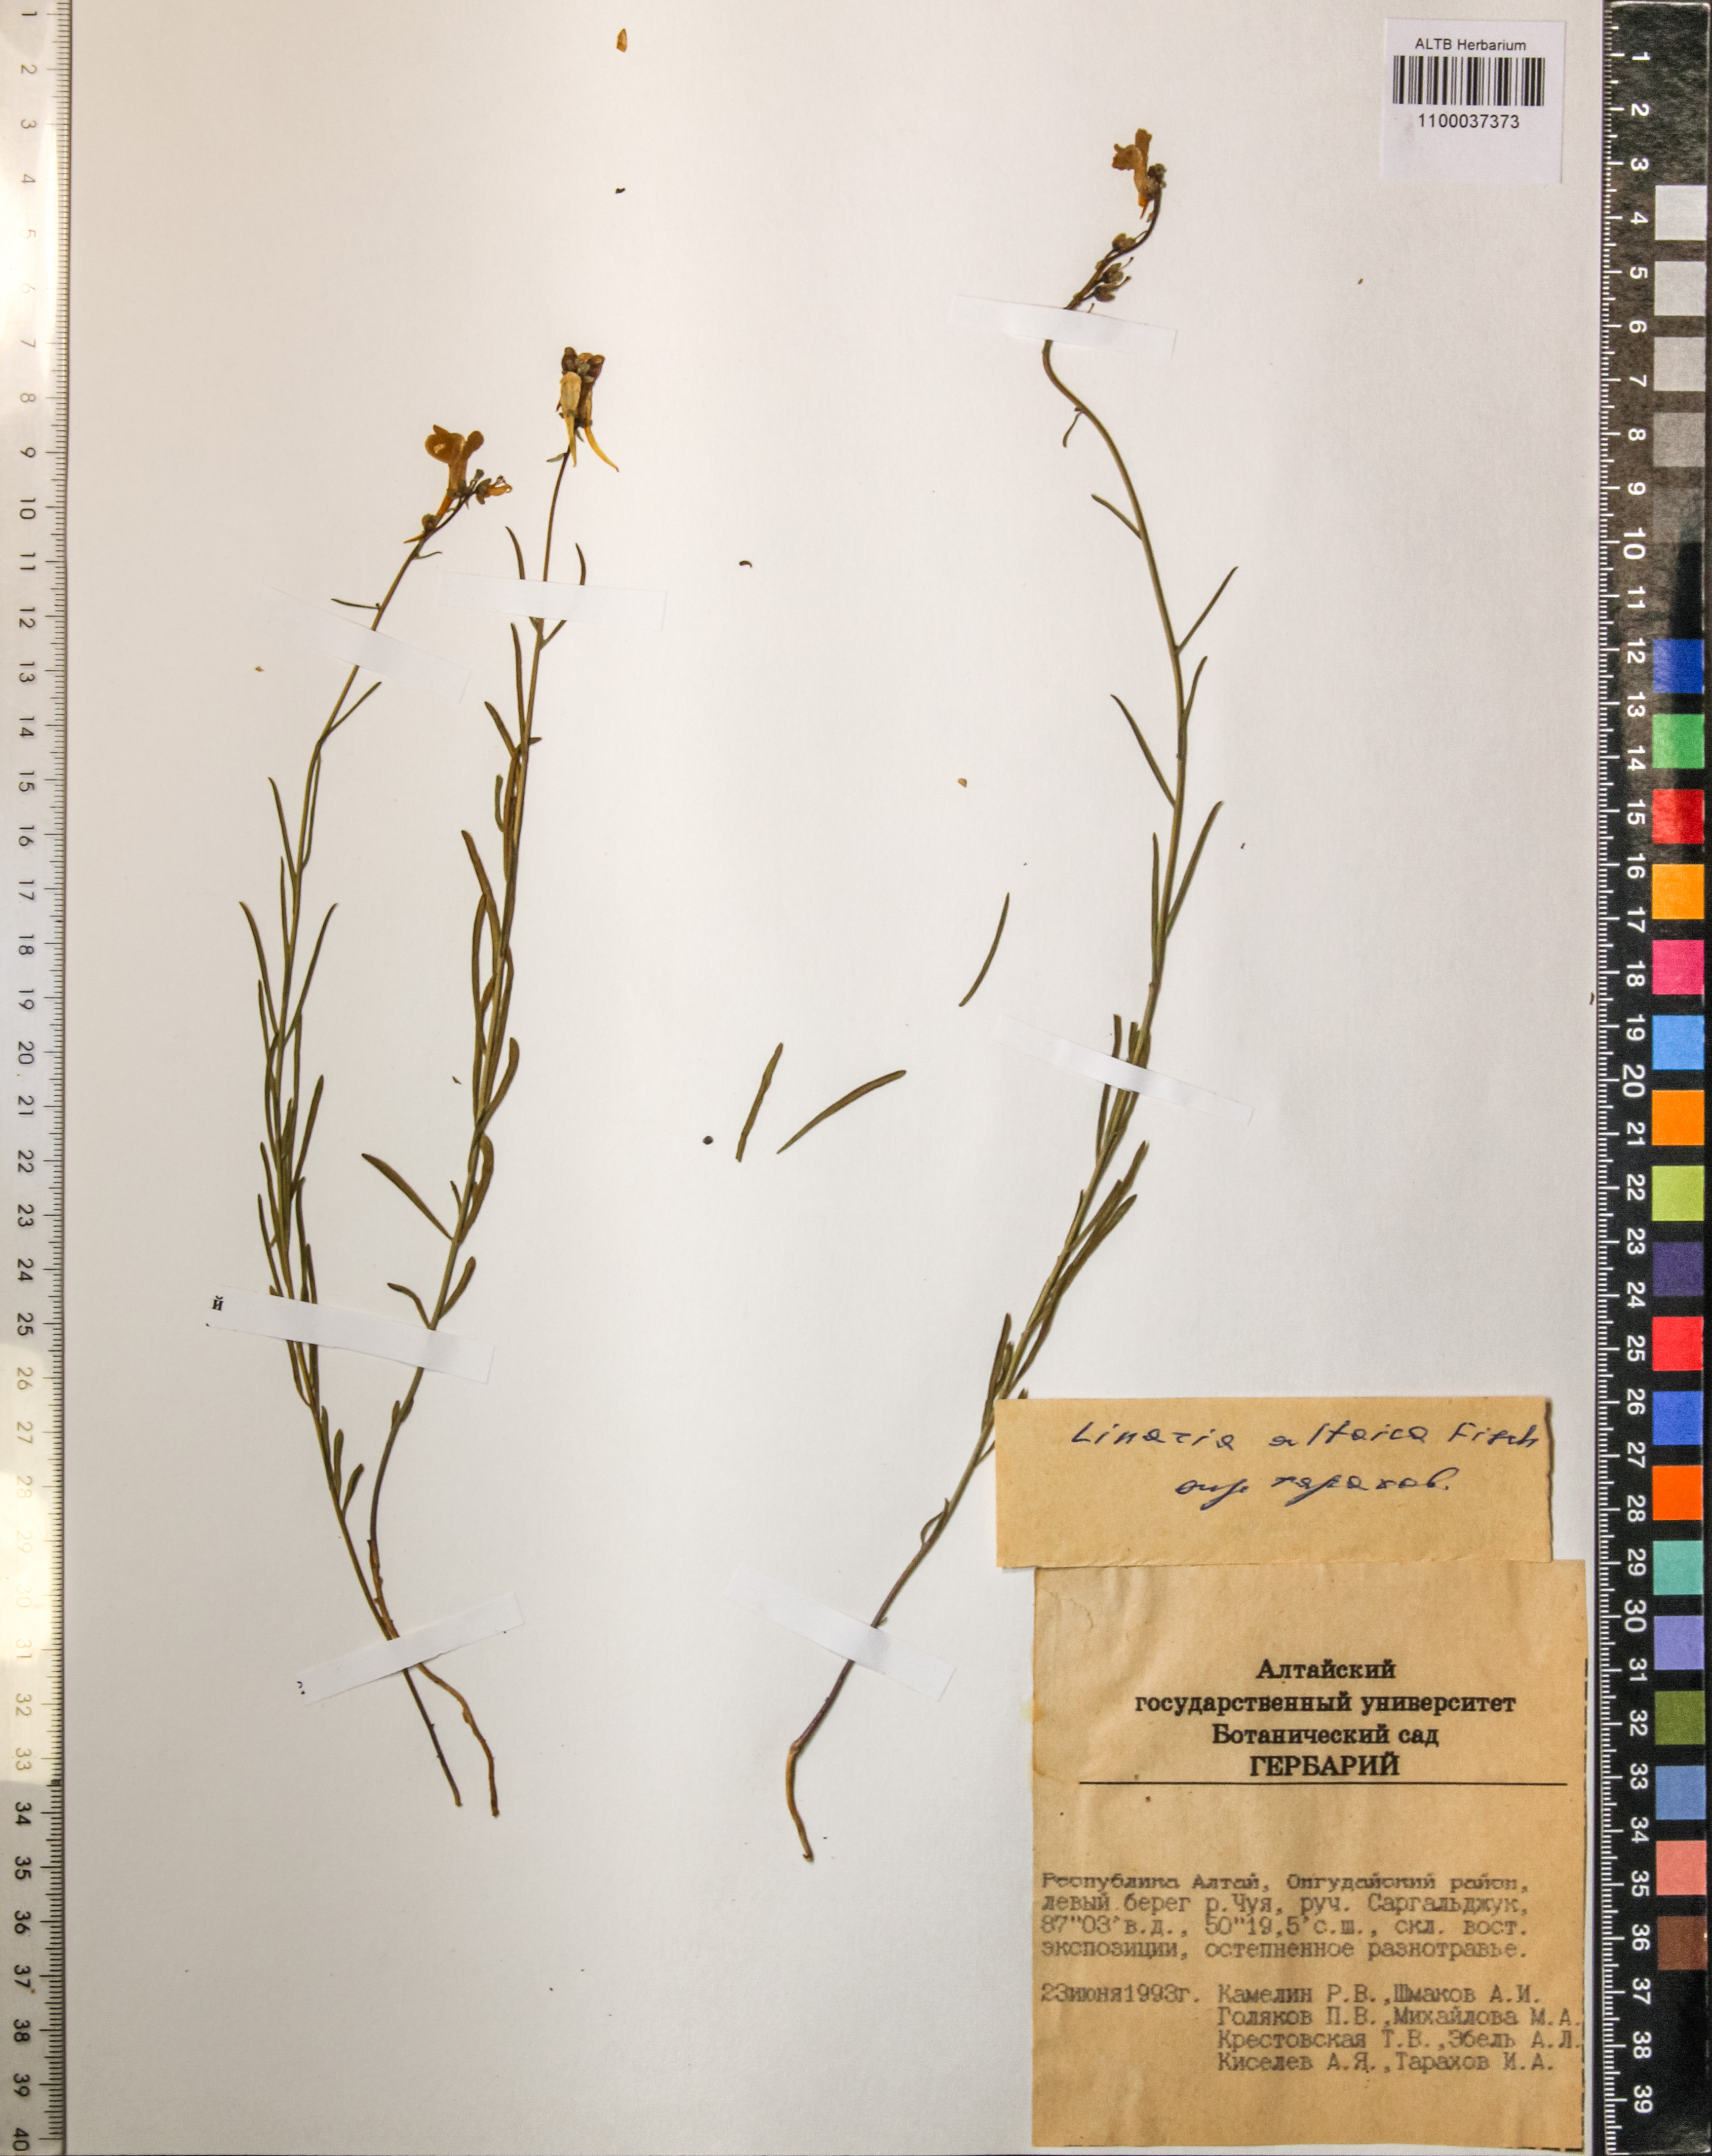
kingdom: Plantae
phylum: Tracheophyta
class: Magnoliopsida
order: Lamiales
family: Plantaginaceae
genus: Linaria
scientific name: Linaria altaica
